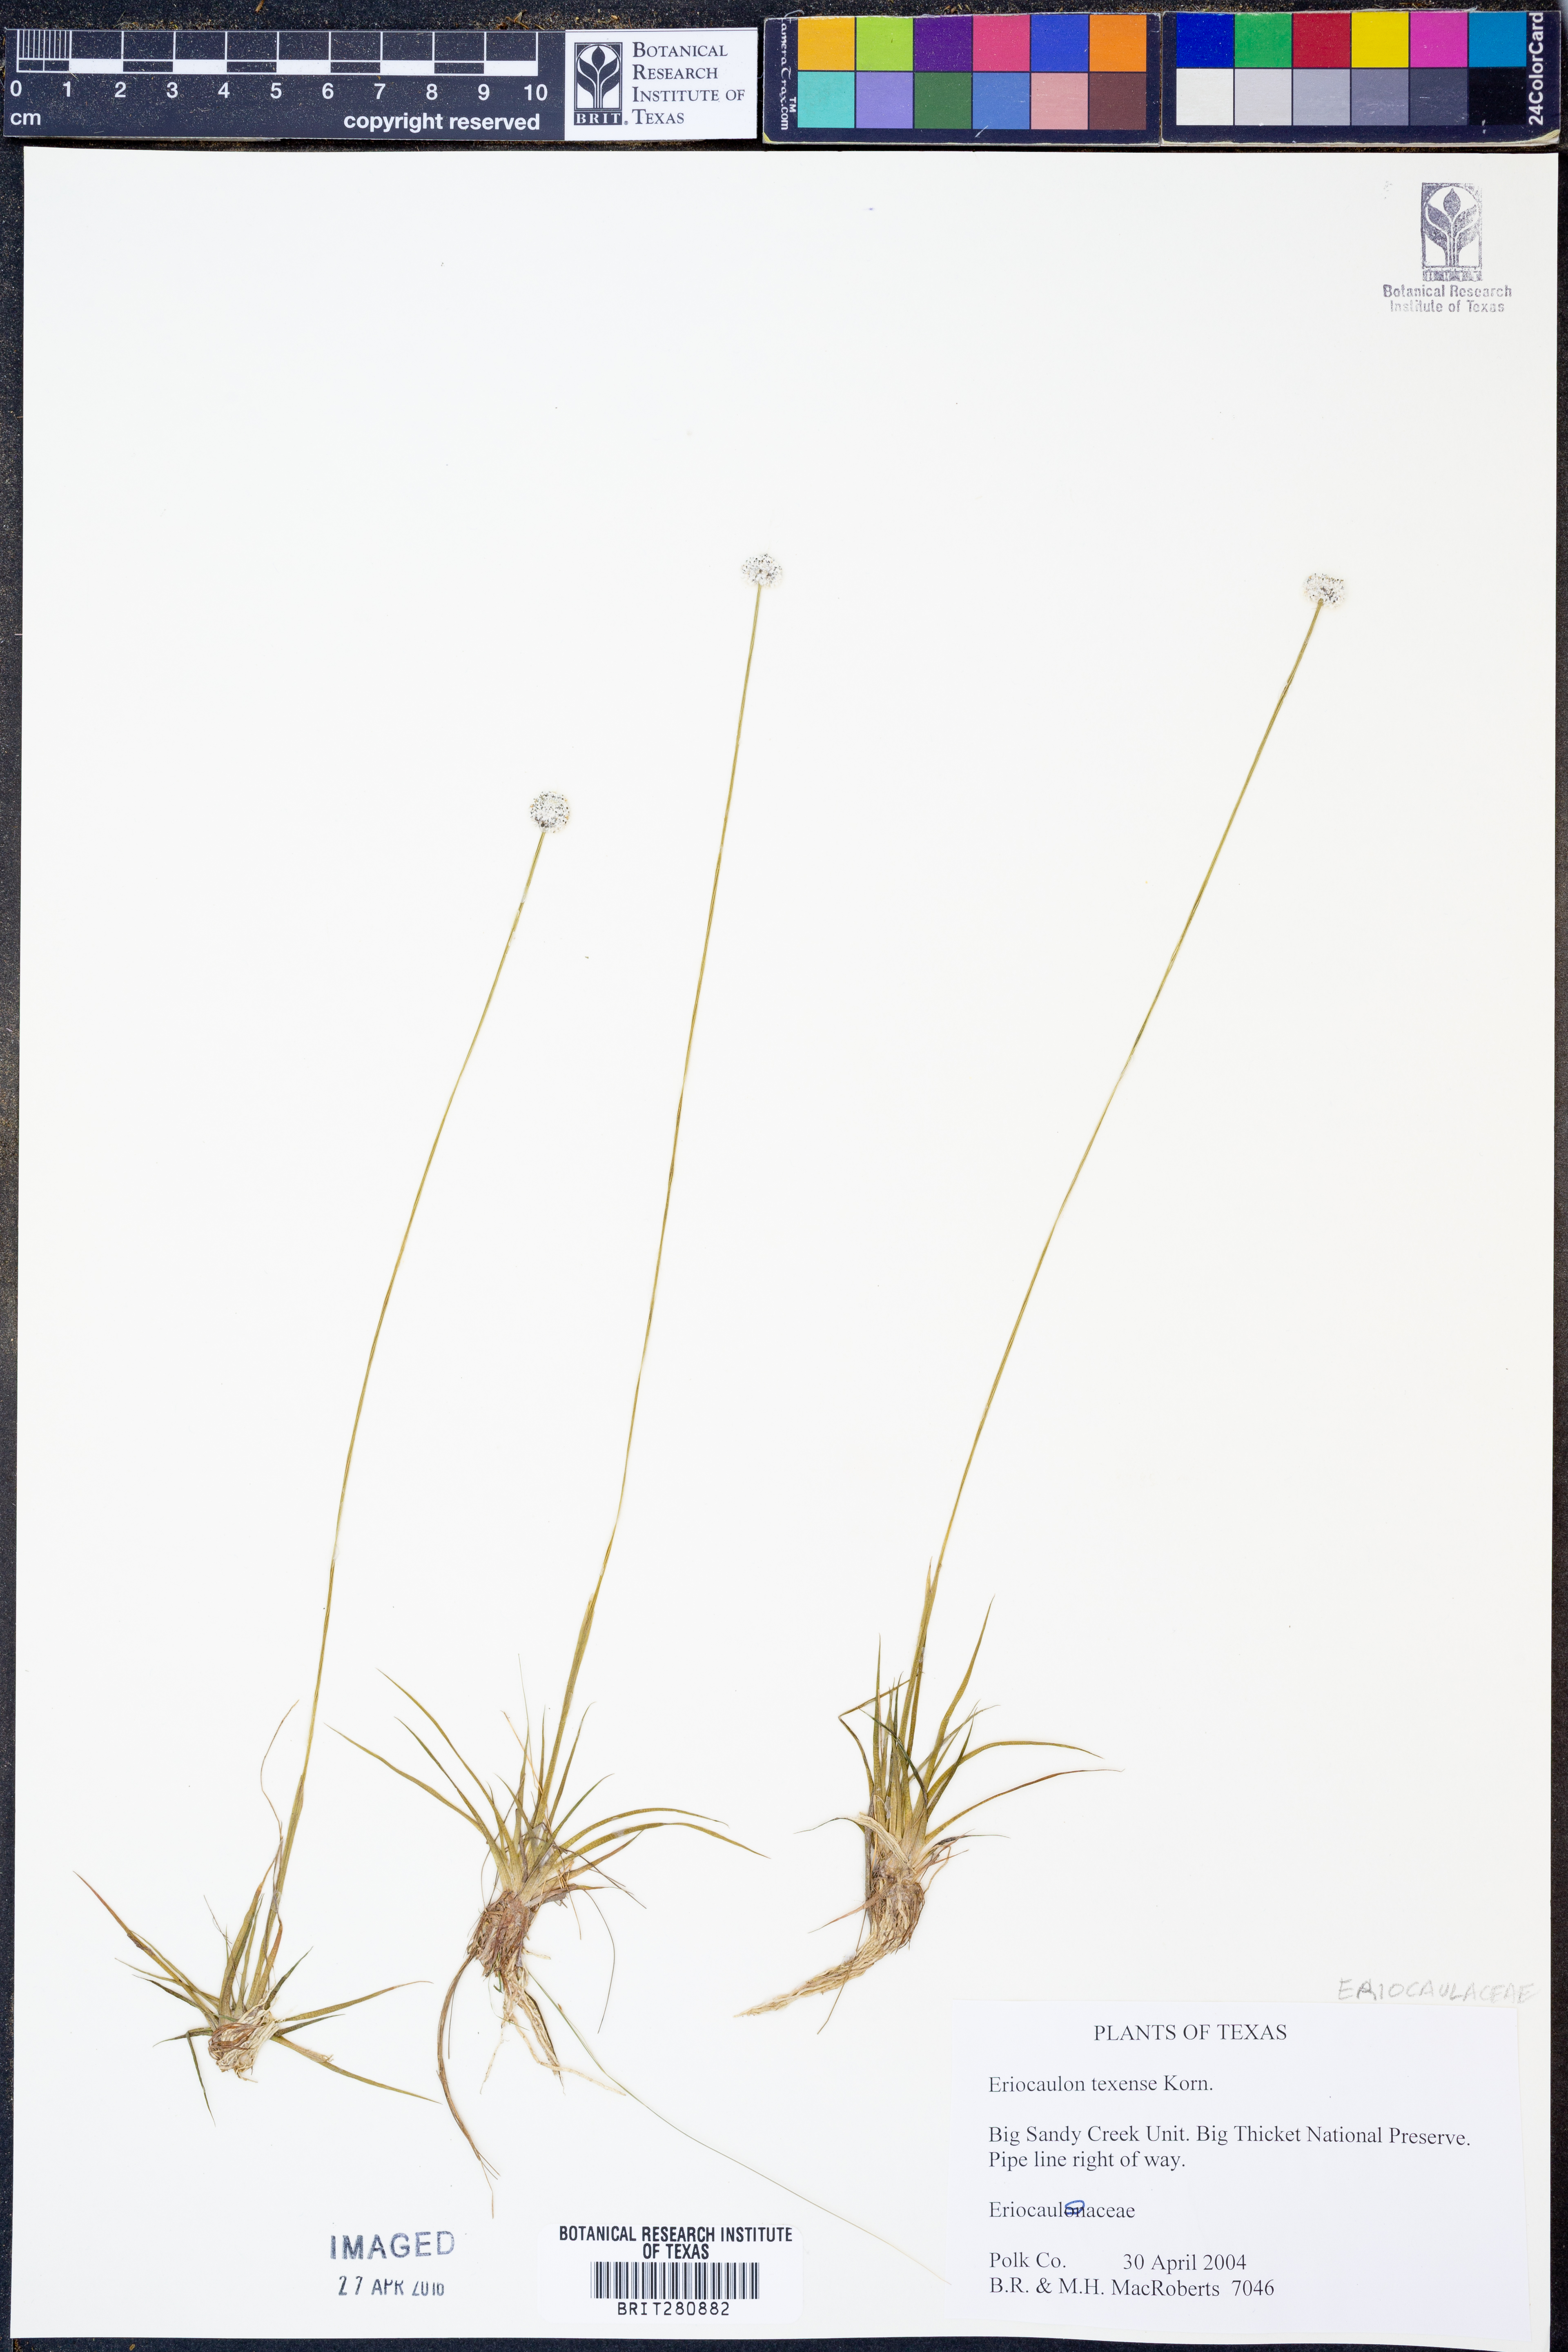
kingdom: Plantae
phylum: Tracheophyta
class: Liliopsida
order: Poales
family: Eriocaulaceae
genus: Eriocaulon
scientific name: Eriocaulon texense
